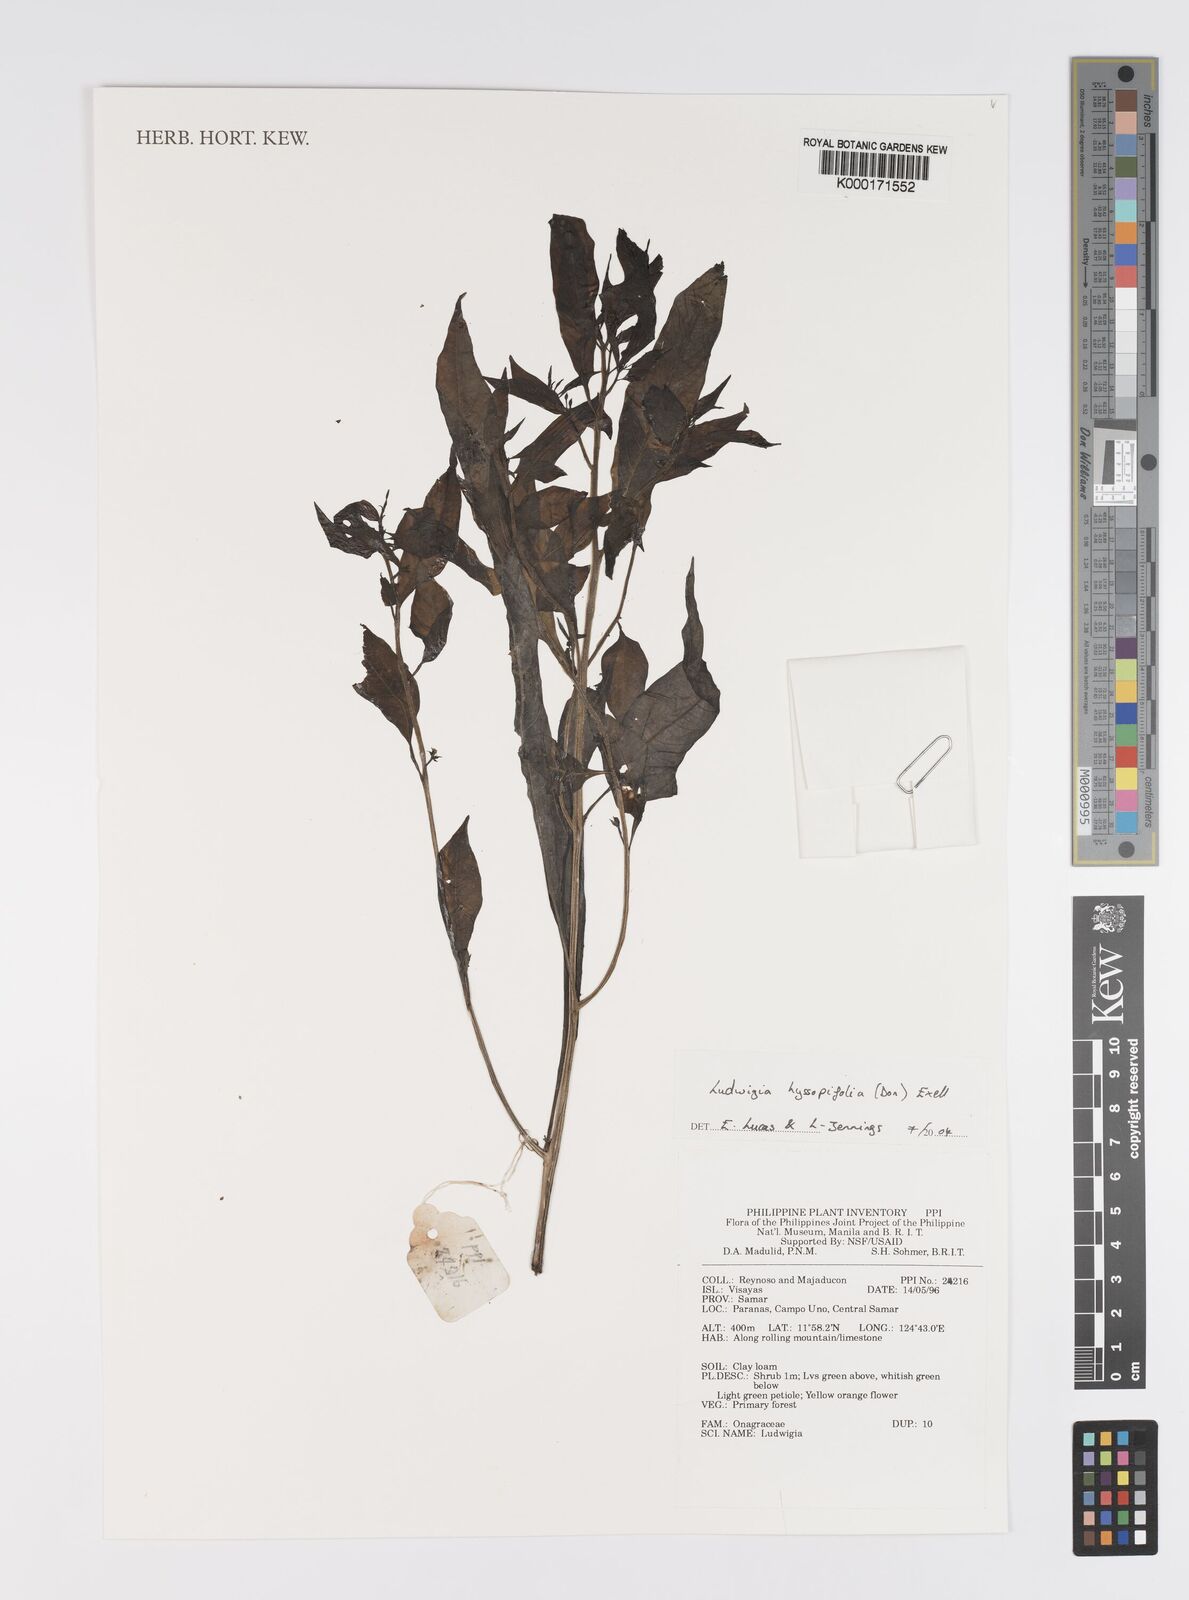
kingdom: Plantae
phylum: Tracheophyta
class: Magnoliopsida
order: Myrtales
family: Onagraceae
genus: Ludwigia
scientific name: Ludwigia hyssopifolia
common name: Linear leaf water primrose
